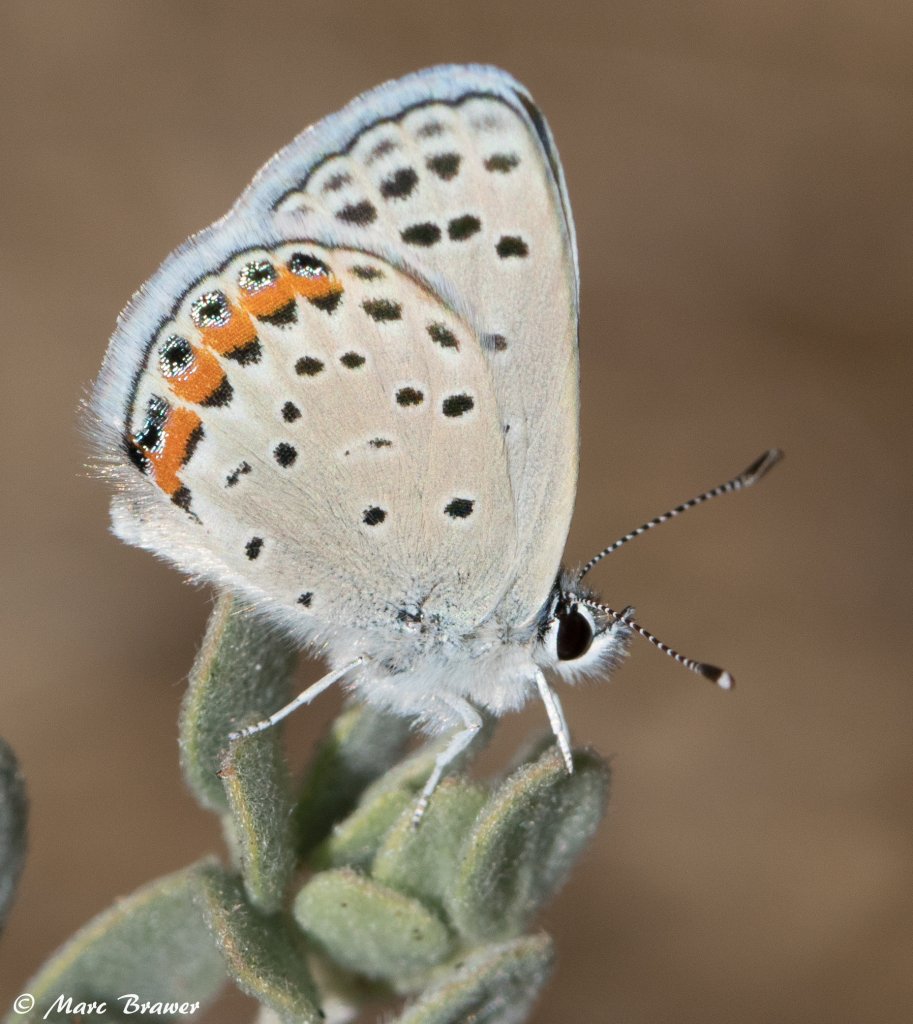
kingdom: Animalia
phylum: Arthropoda
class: Insecta
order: Lepidoptera
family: Lycaenidae
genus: Plebejus
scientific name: Plebejus acmon
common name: Acmon Blue
